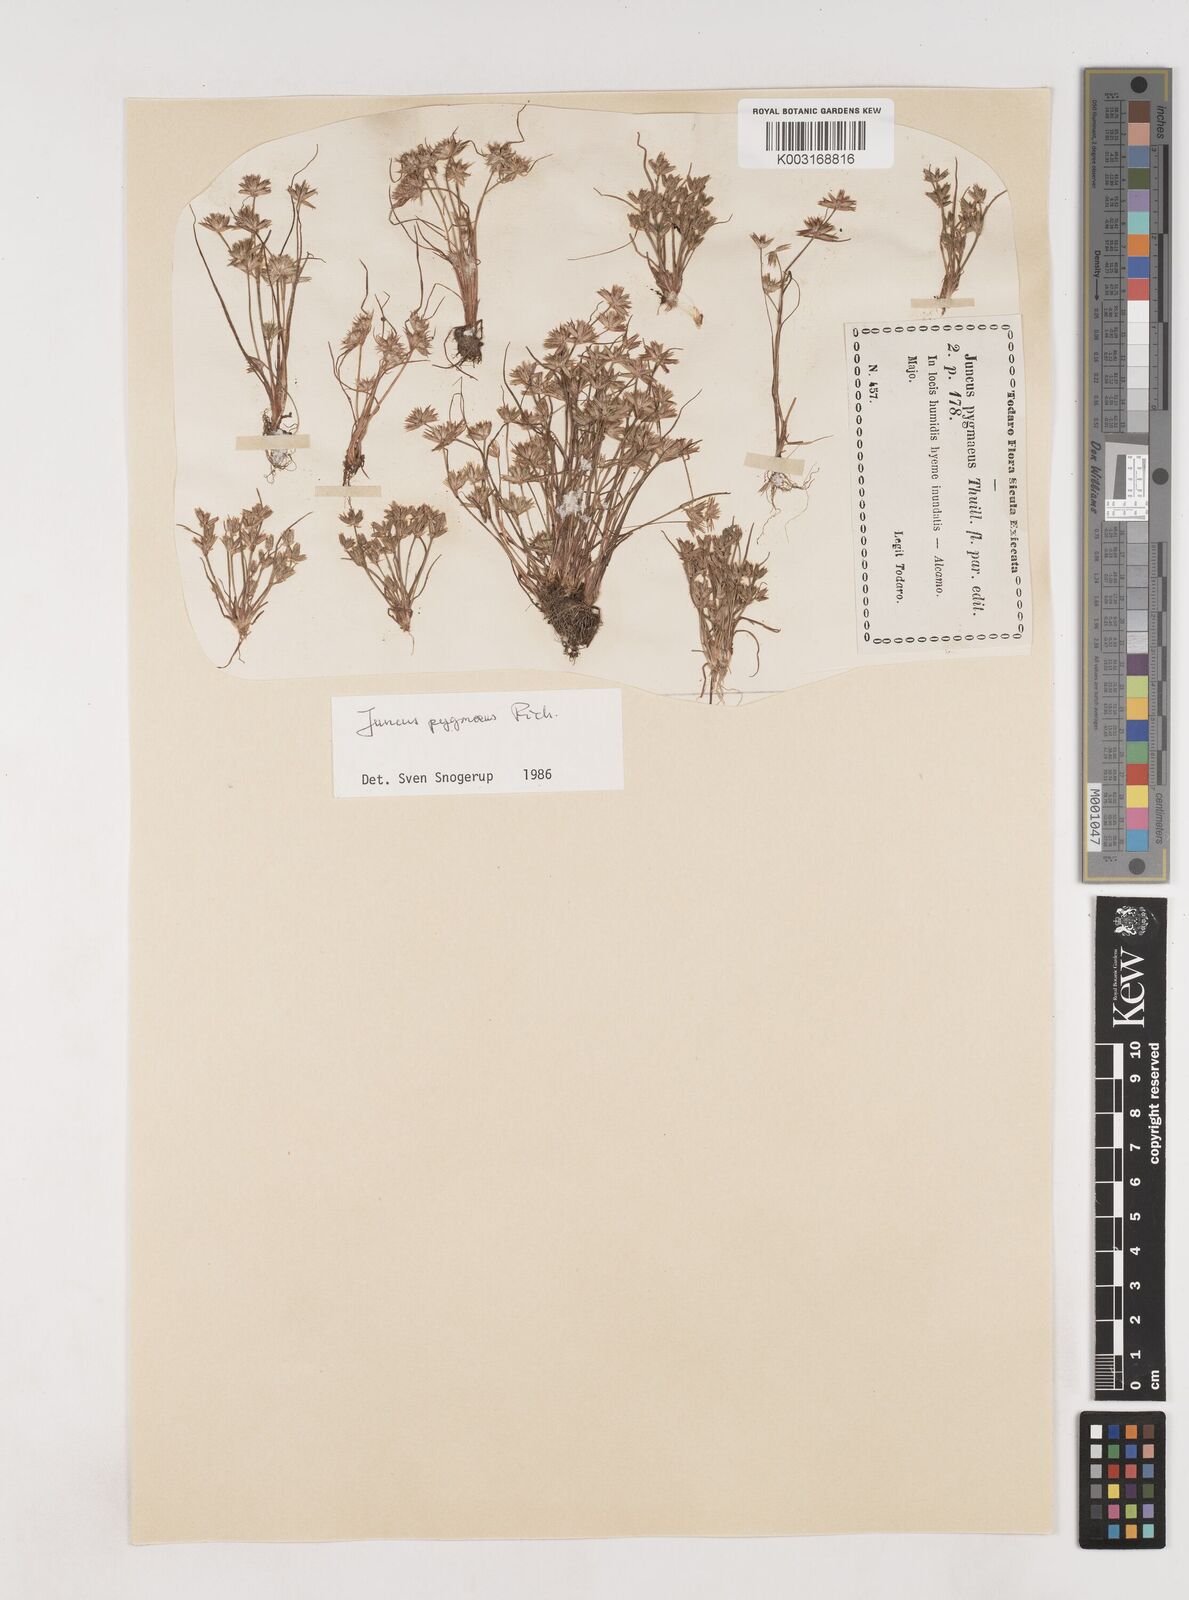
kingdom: Plantae
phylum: Tracheophyta
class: Liliopsida
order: Poales
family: Juncaceae
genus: Juncus
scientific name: Juncus pygmaeus
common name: Pigmy rush
